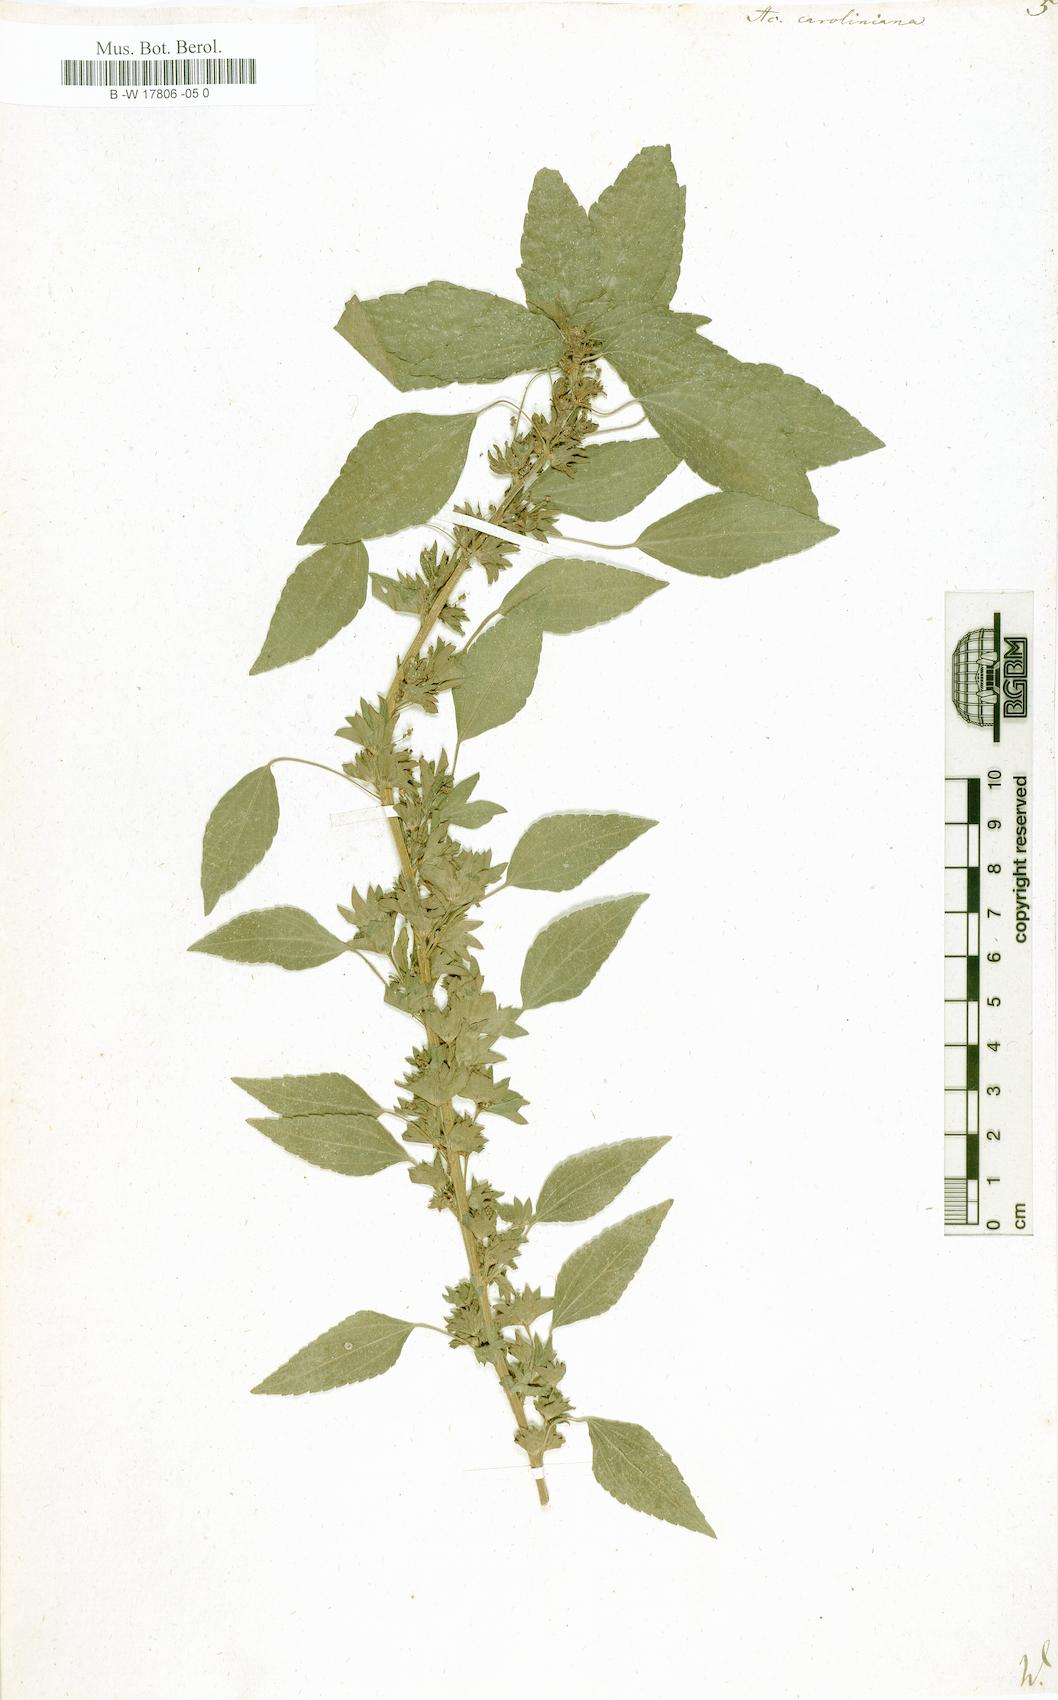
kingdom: Plantae
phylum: Tracheophyta
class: Magnoliopsida
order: Malpighiales
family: Euphorbiaceae
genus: Acalypha
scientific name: Acalypha virginica
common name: Virginia copperleaf
